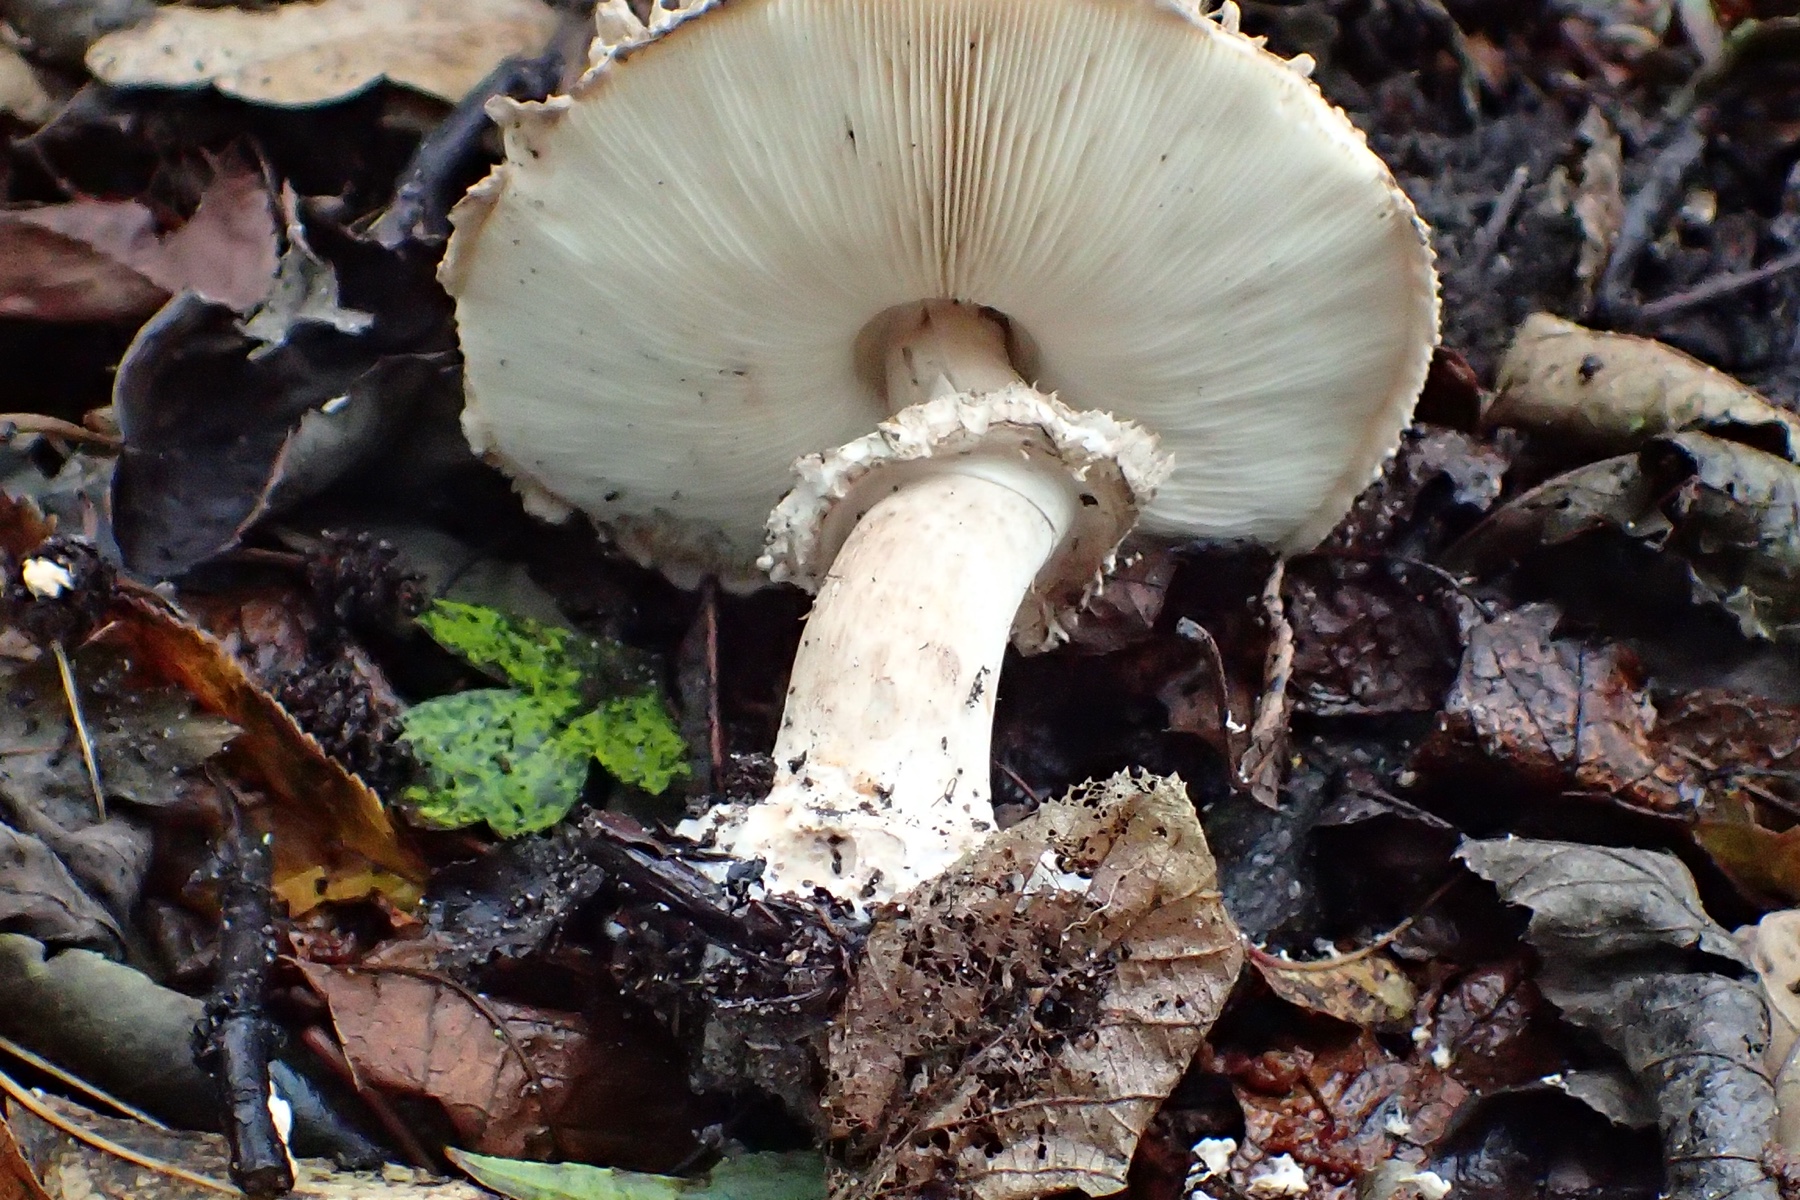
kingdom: Fungi
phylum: Basidiomycota
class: Agaricomycetes
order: Agaricales
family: Agaricaceae
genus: Chlorophyllum
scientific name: Chlorophyllum olivieri
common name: almindelig rabarberhat
